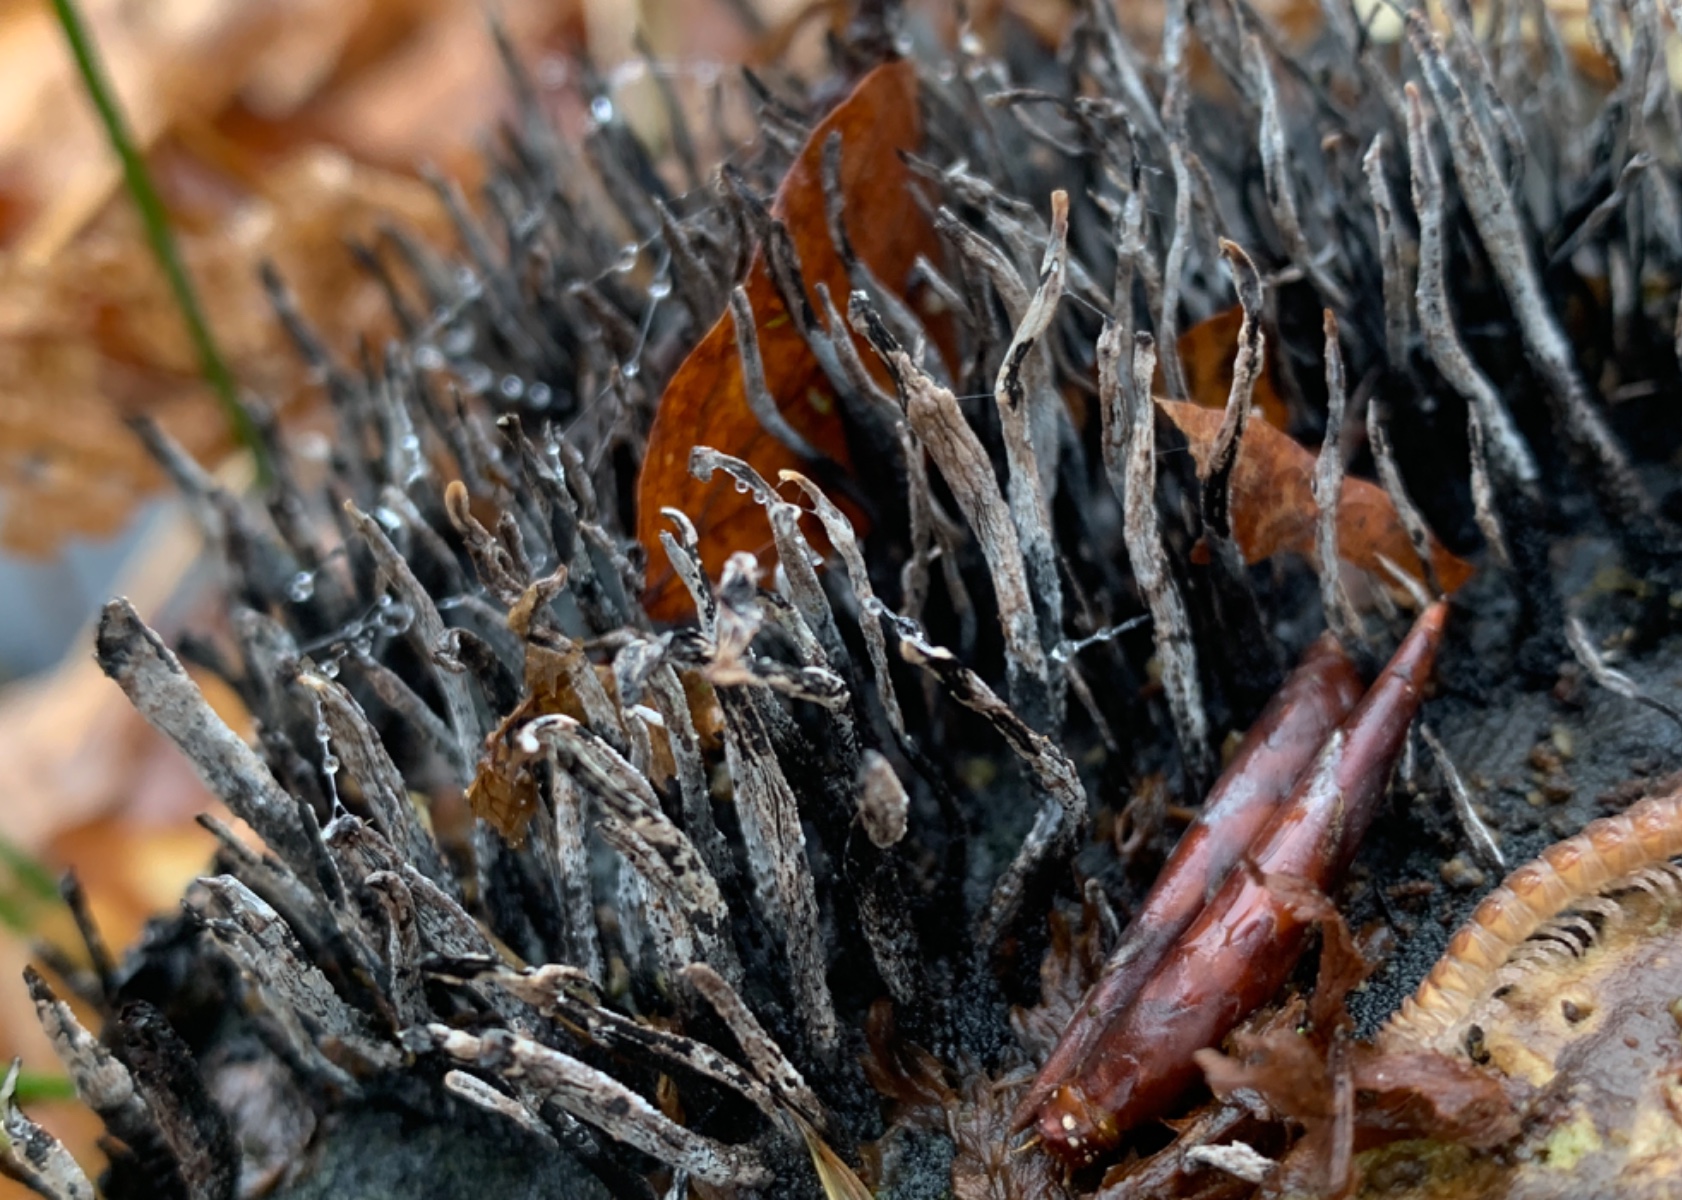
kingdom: Fungi
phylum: Ascomycota
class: Sordariomycetes
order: Xylariales
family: Xylariaceae
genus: Xylaria
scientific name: Xylaria hypoxylon
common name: grenet stødsvamp
